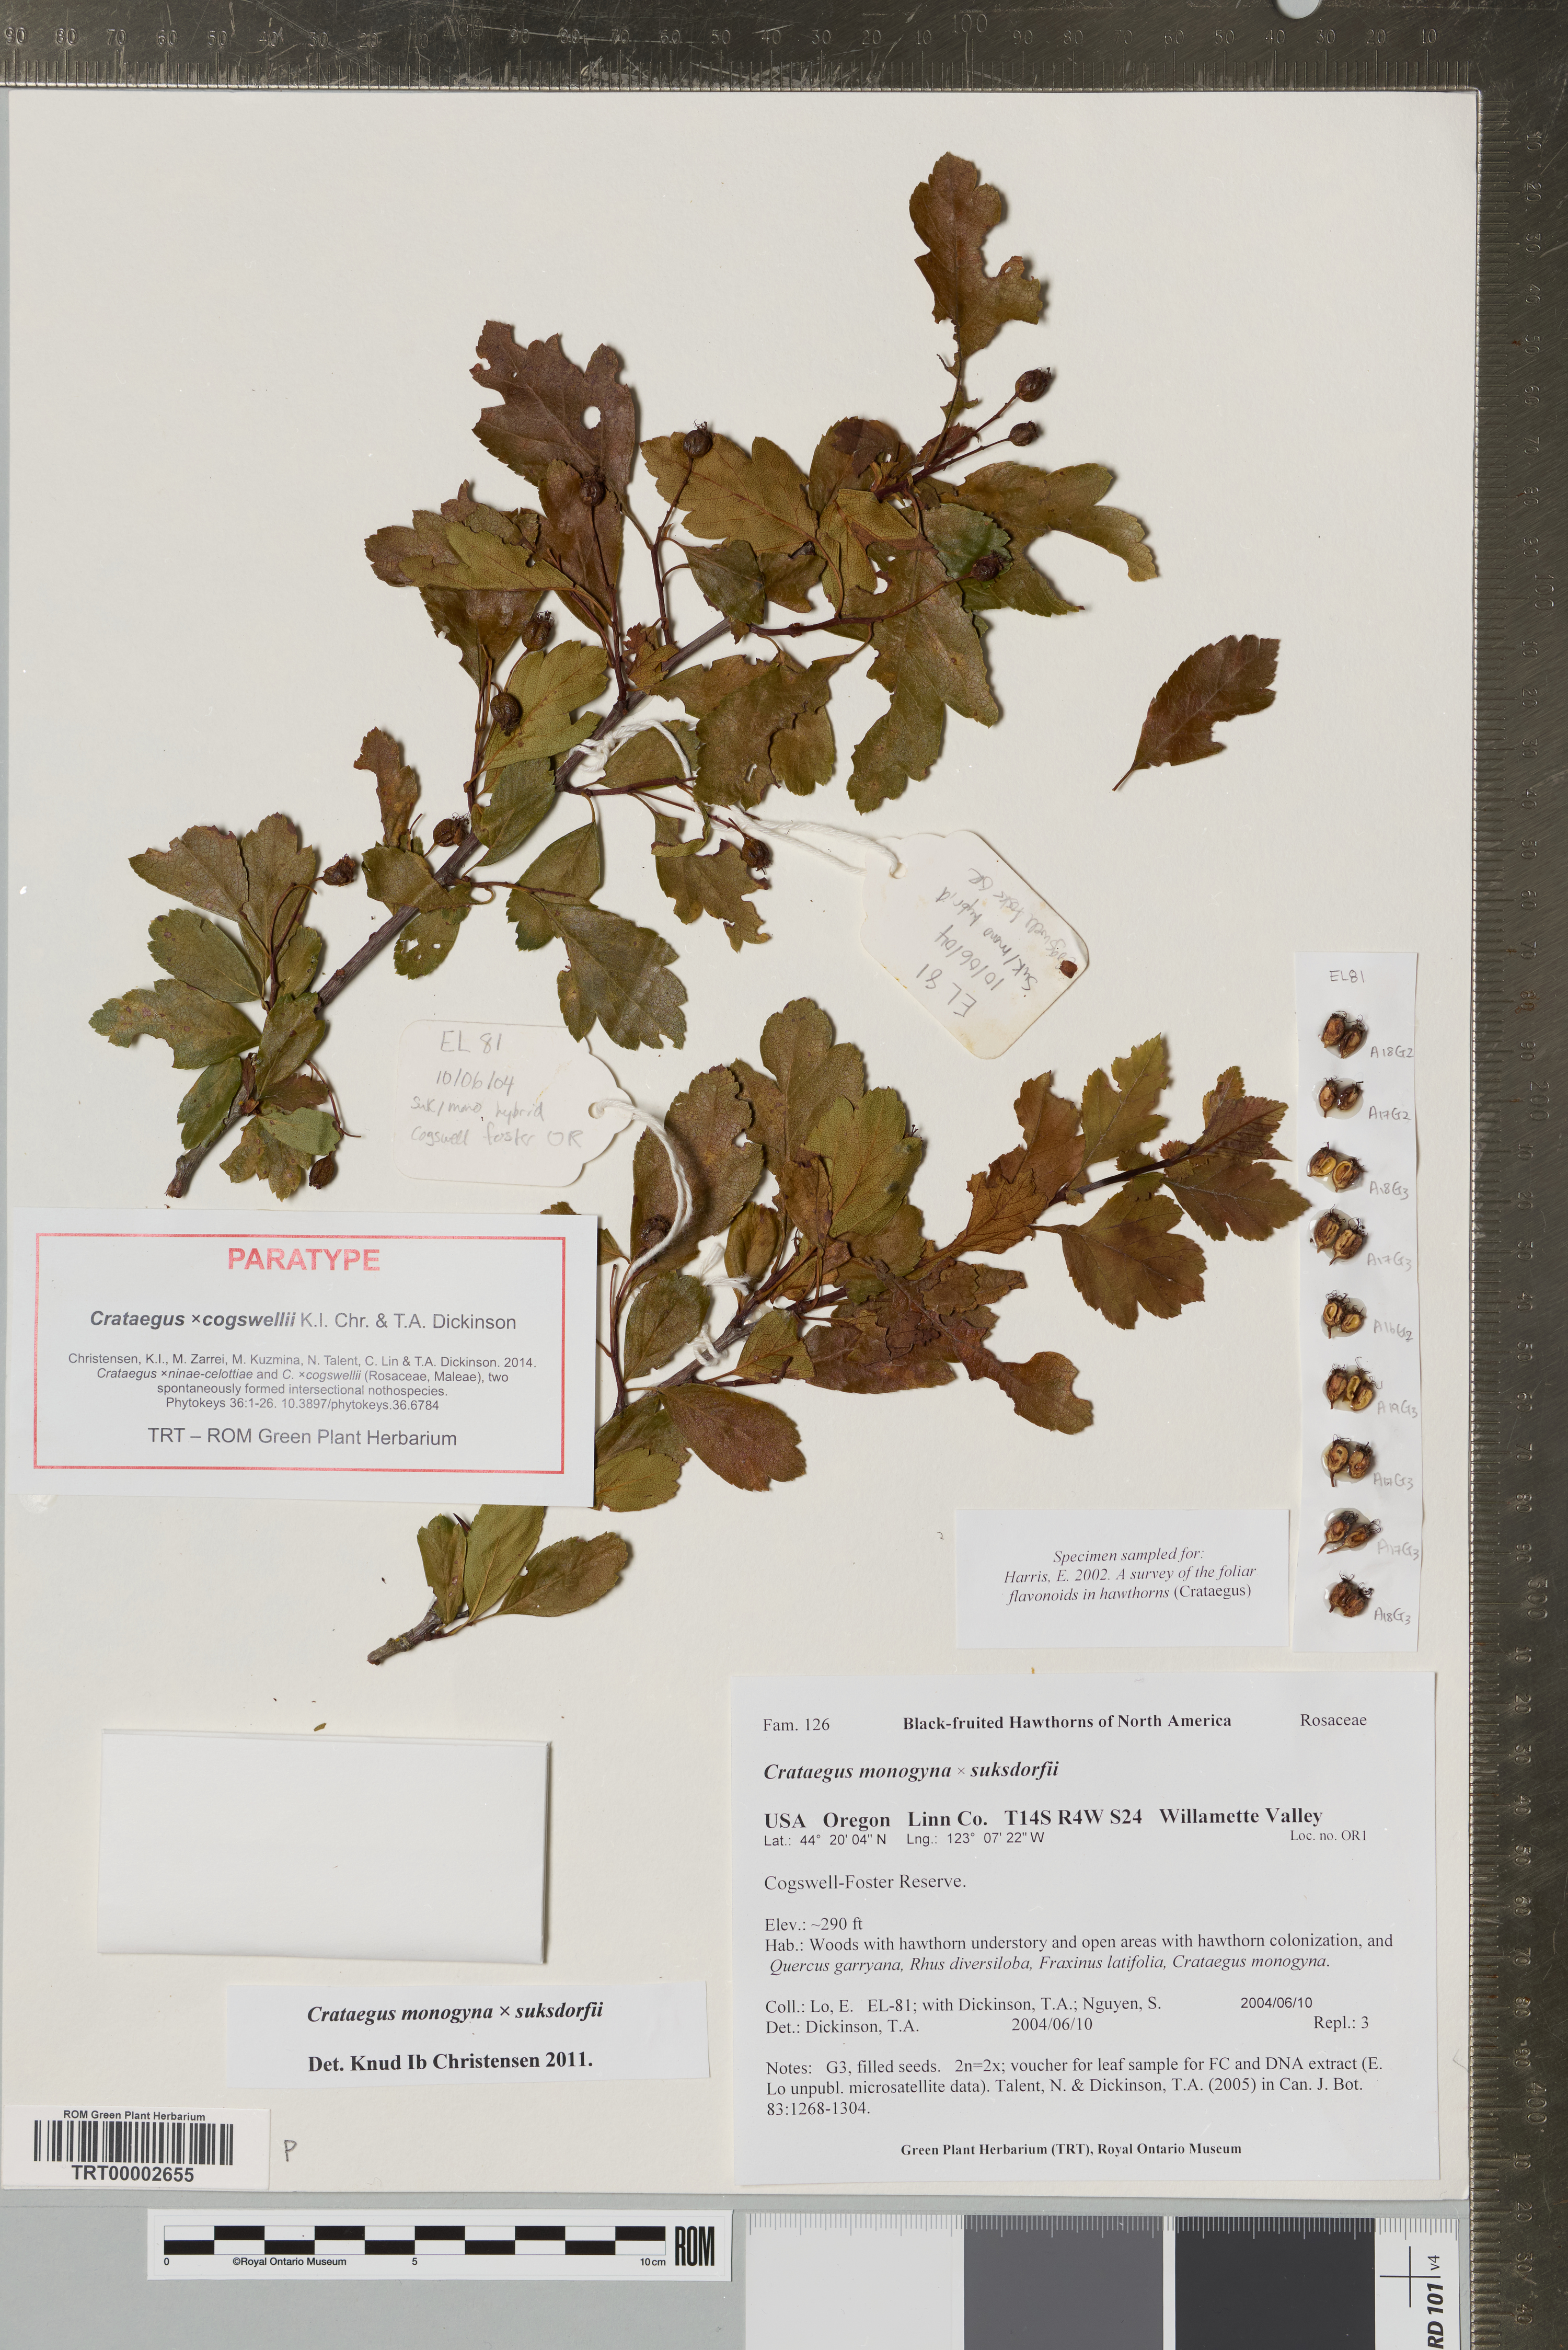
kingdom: Plantae
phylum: Tracheophyta
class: Magnoliopsida
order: Rosales
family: Rosaceae
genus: Crataegus
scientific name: Crataegus
